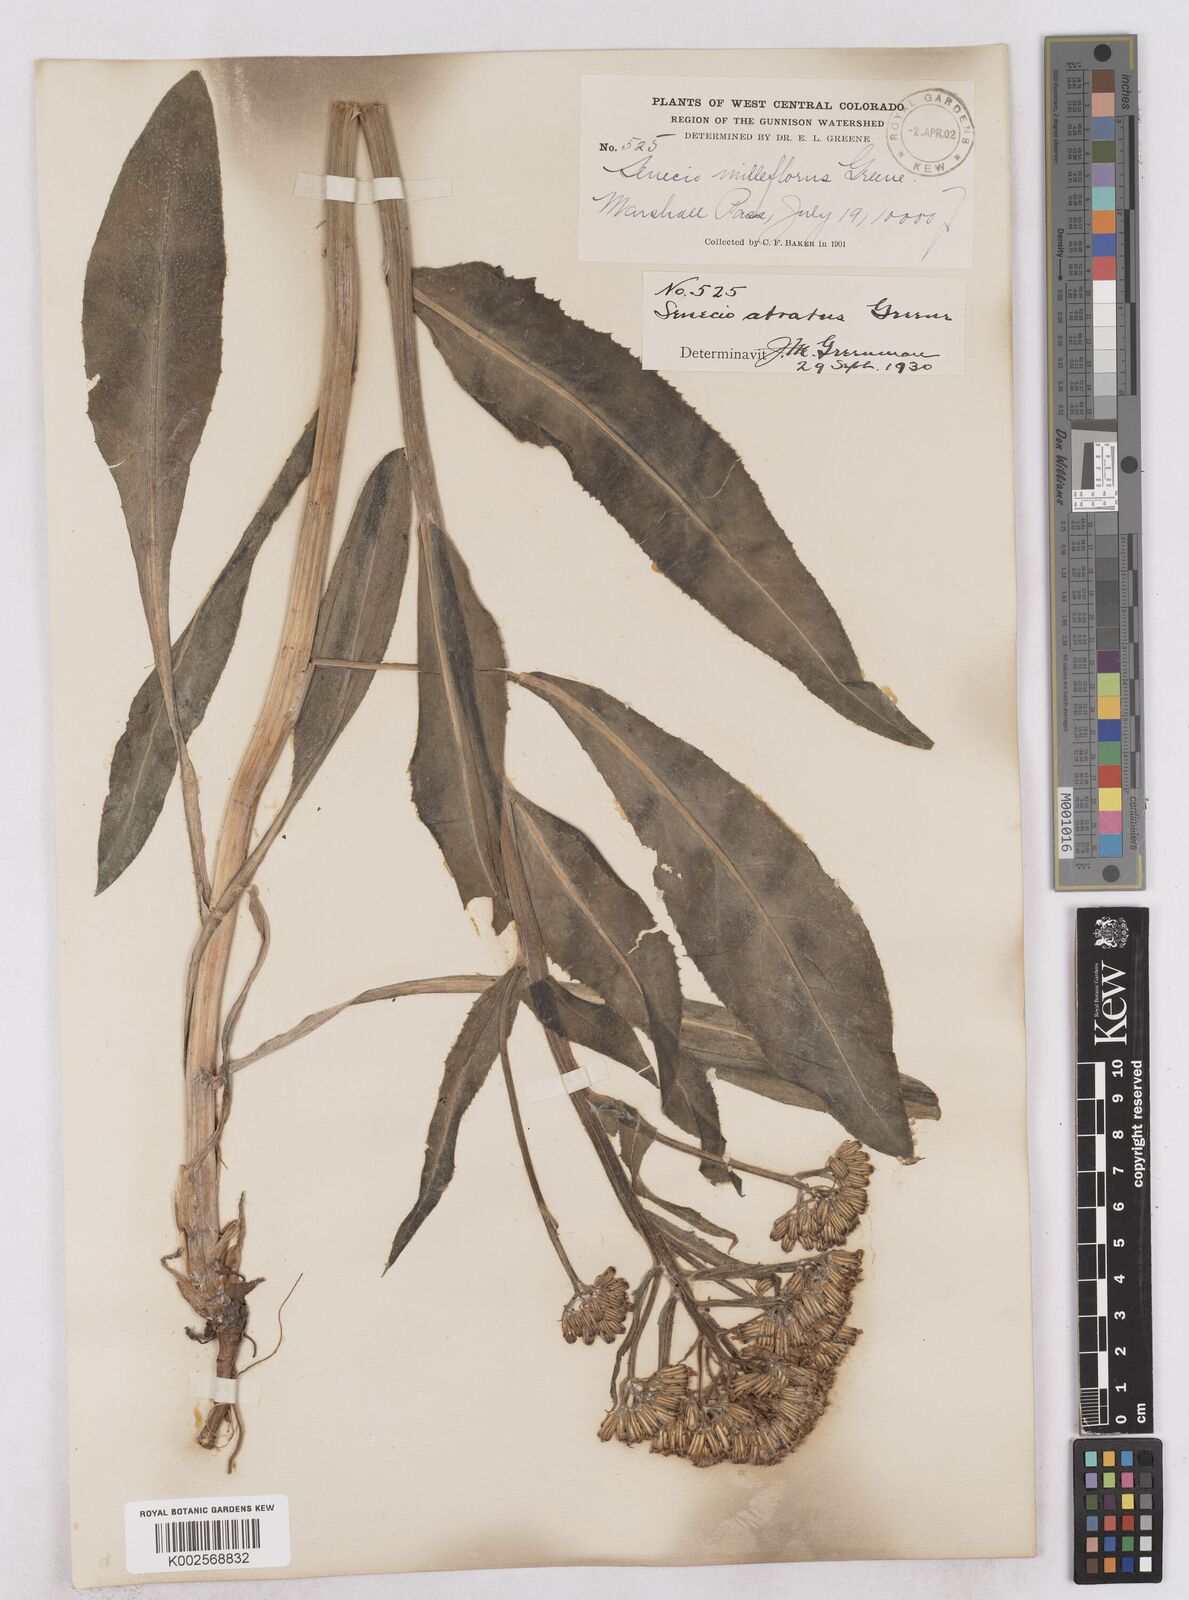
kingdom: Plantae
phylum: Tracheophyta
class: Magnoliopsida
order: Asterales
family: Asteraceae
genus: Senecio
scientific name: Senecio atratus
